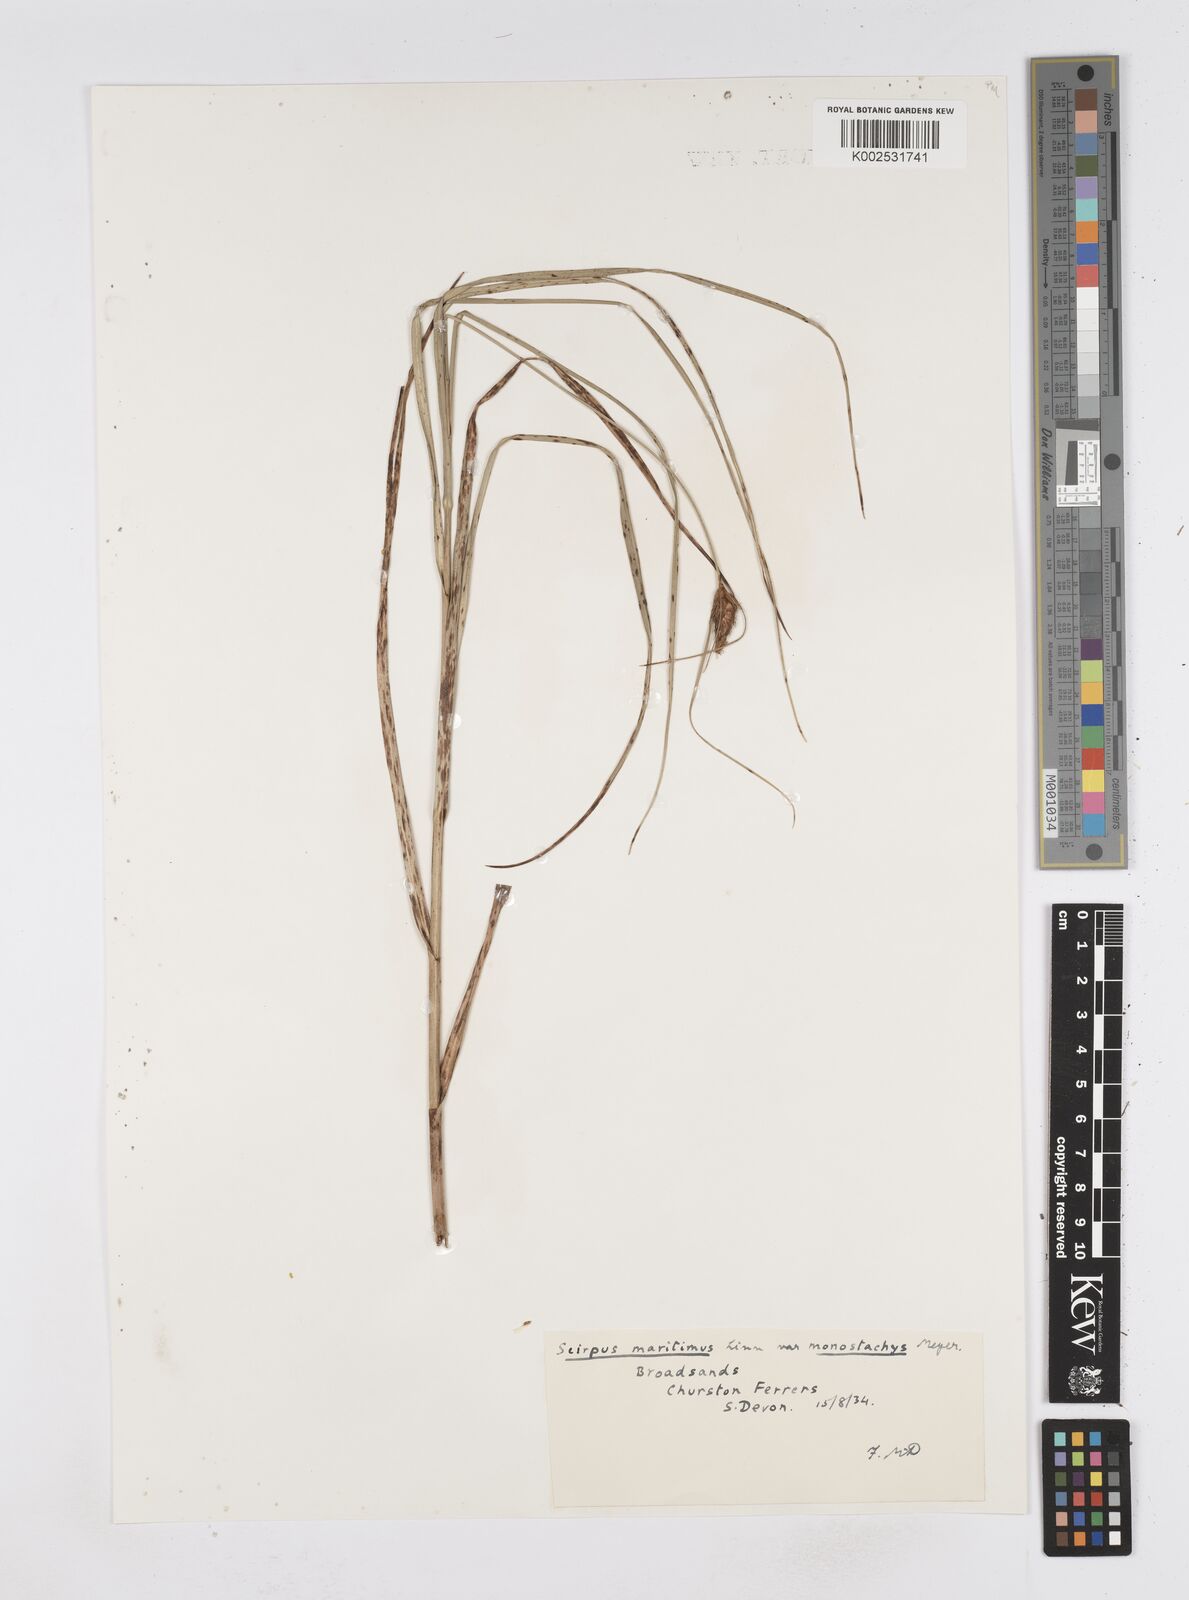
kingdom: Plantae
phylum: Tracheophyta
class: Liliopsida
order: Poales
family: Cyperaceae
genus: Bolboschoenus
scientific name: Bolboschoenus maritimus
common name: Sea club-rush
